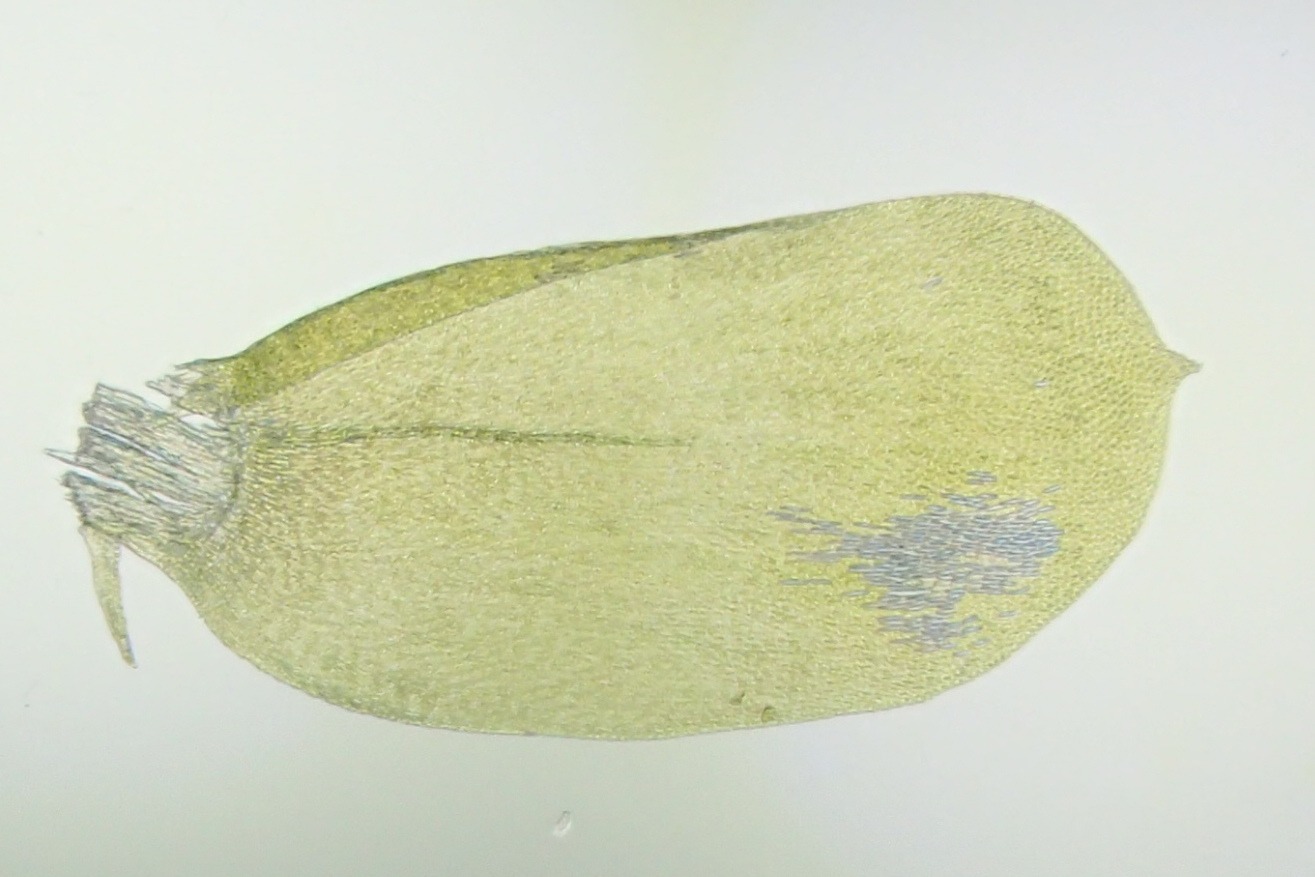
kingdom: Plantae
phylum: Bryophyta
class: Bryopsida
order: Hypnales
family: Neckeraceae
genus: Alleniella
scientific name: Alleniella complanata
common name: Almindelig fladmos
